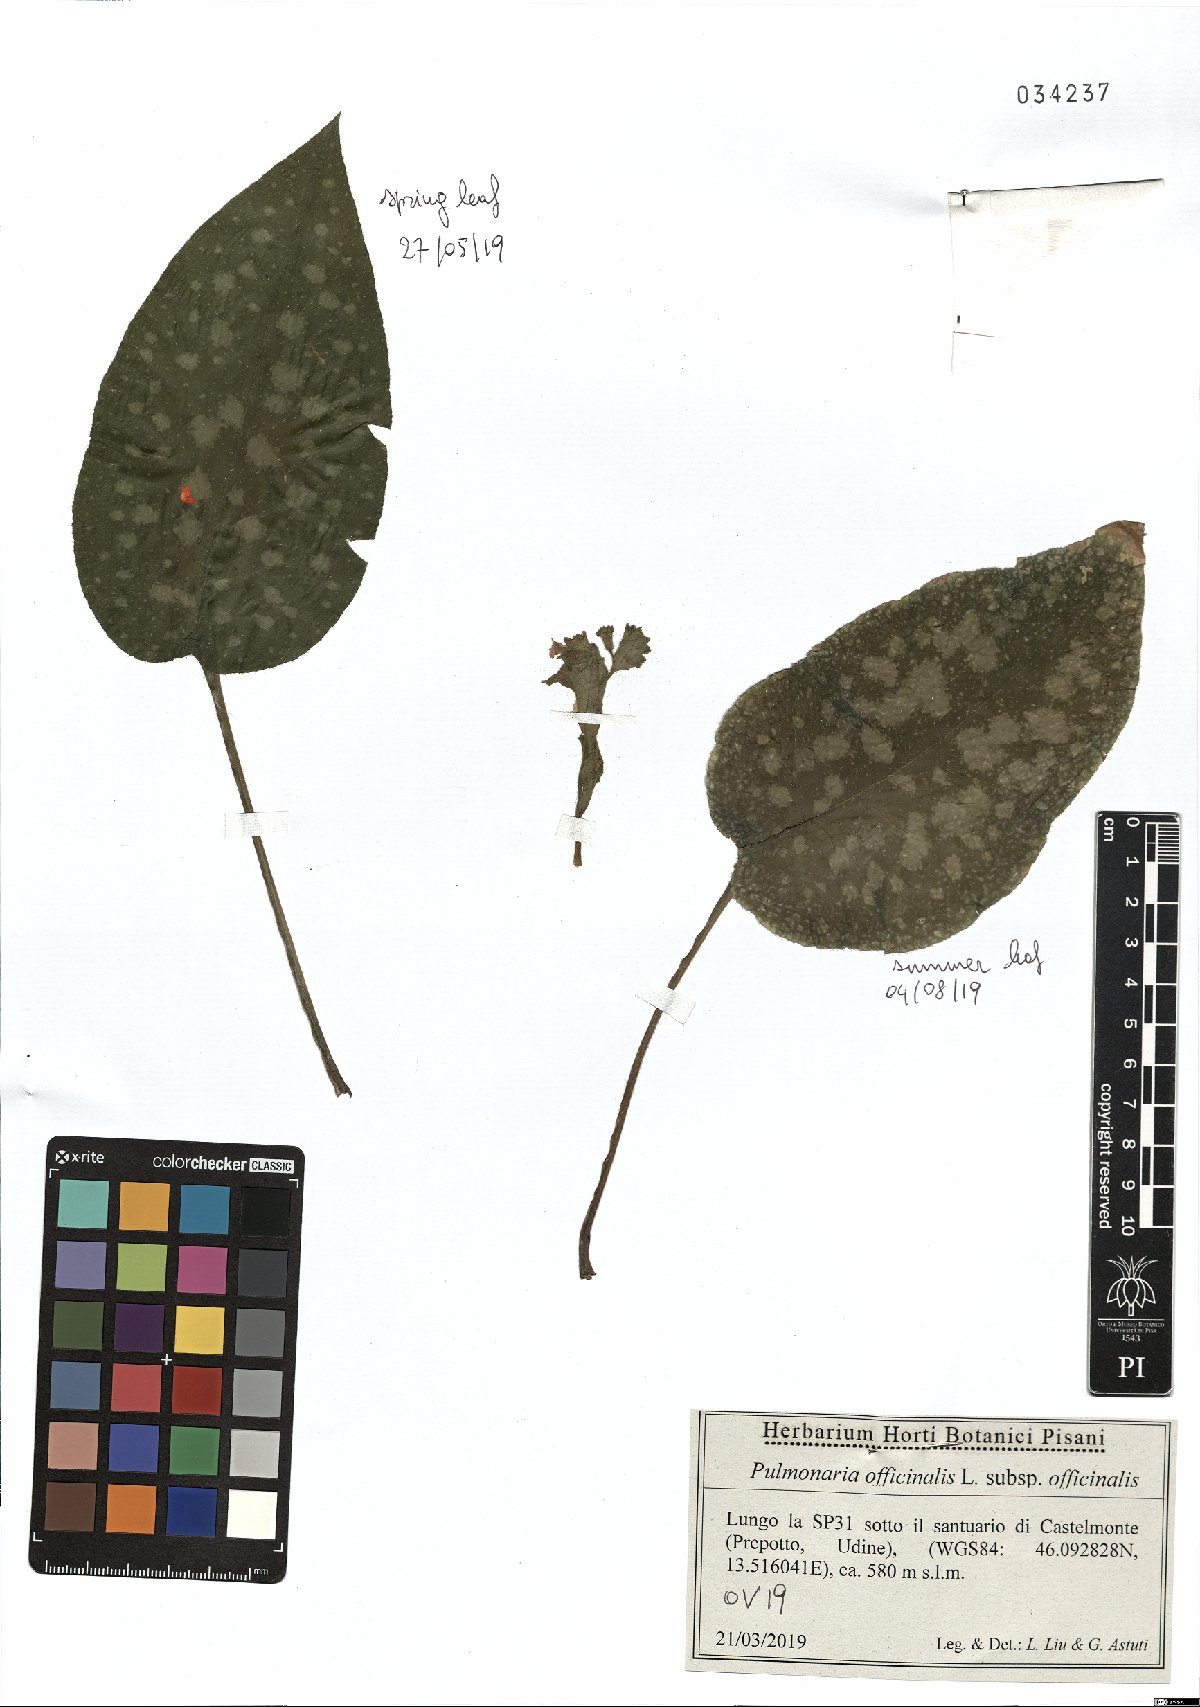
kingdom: Plantae
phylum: Tracheophyta
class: Magnoliopsida
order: Boraginales
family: Boraginaceae
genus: Pulmonaria
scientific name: Pulmonaria officinalis
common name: Lungwort
